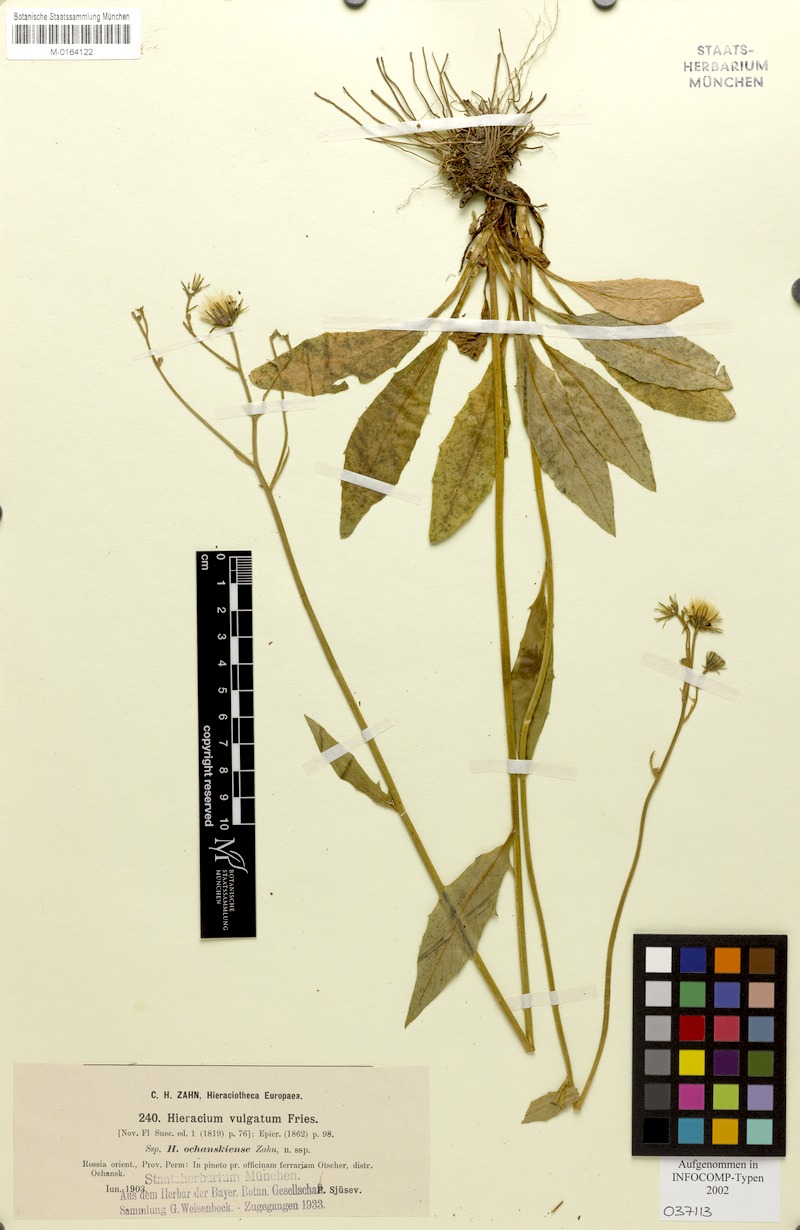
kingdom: Plantae
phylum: Tracheophyta
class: Magnoliopsida
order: Asterales
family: Asteraceae
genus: Hieracium
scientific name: Hieracium lachenalii
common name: Common hawkweed
